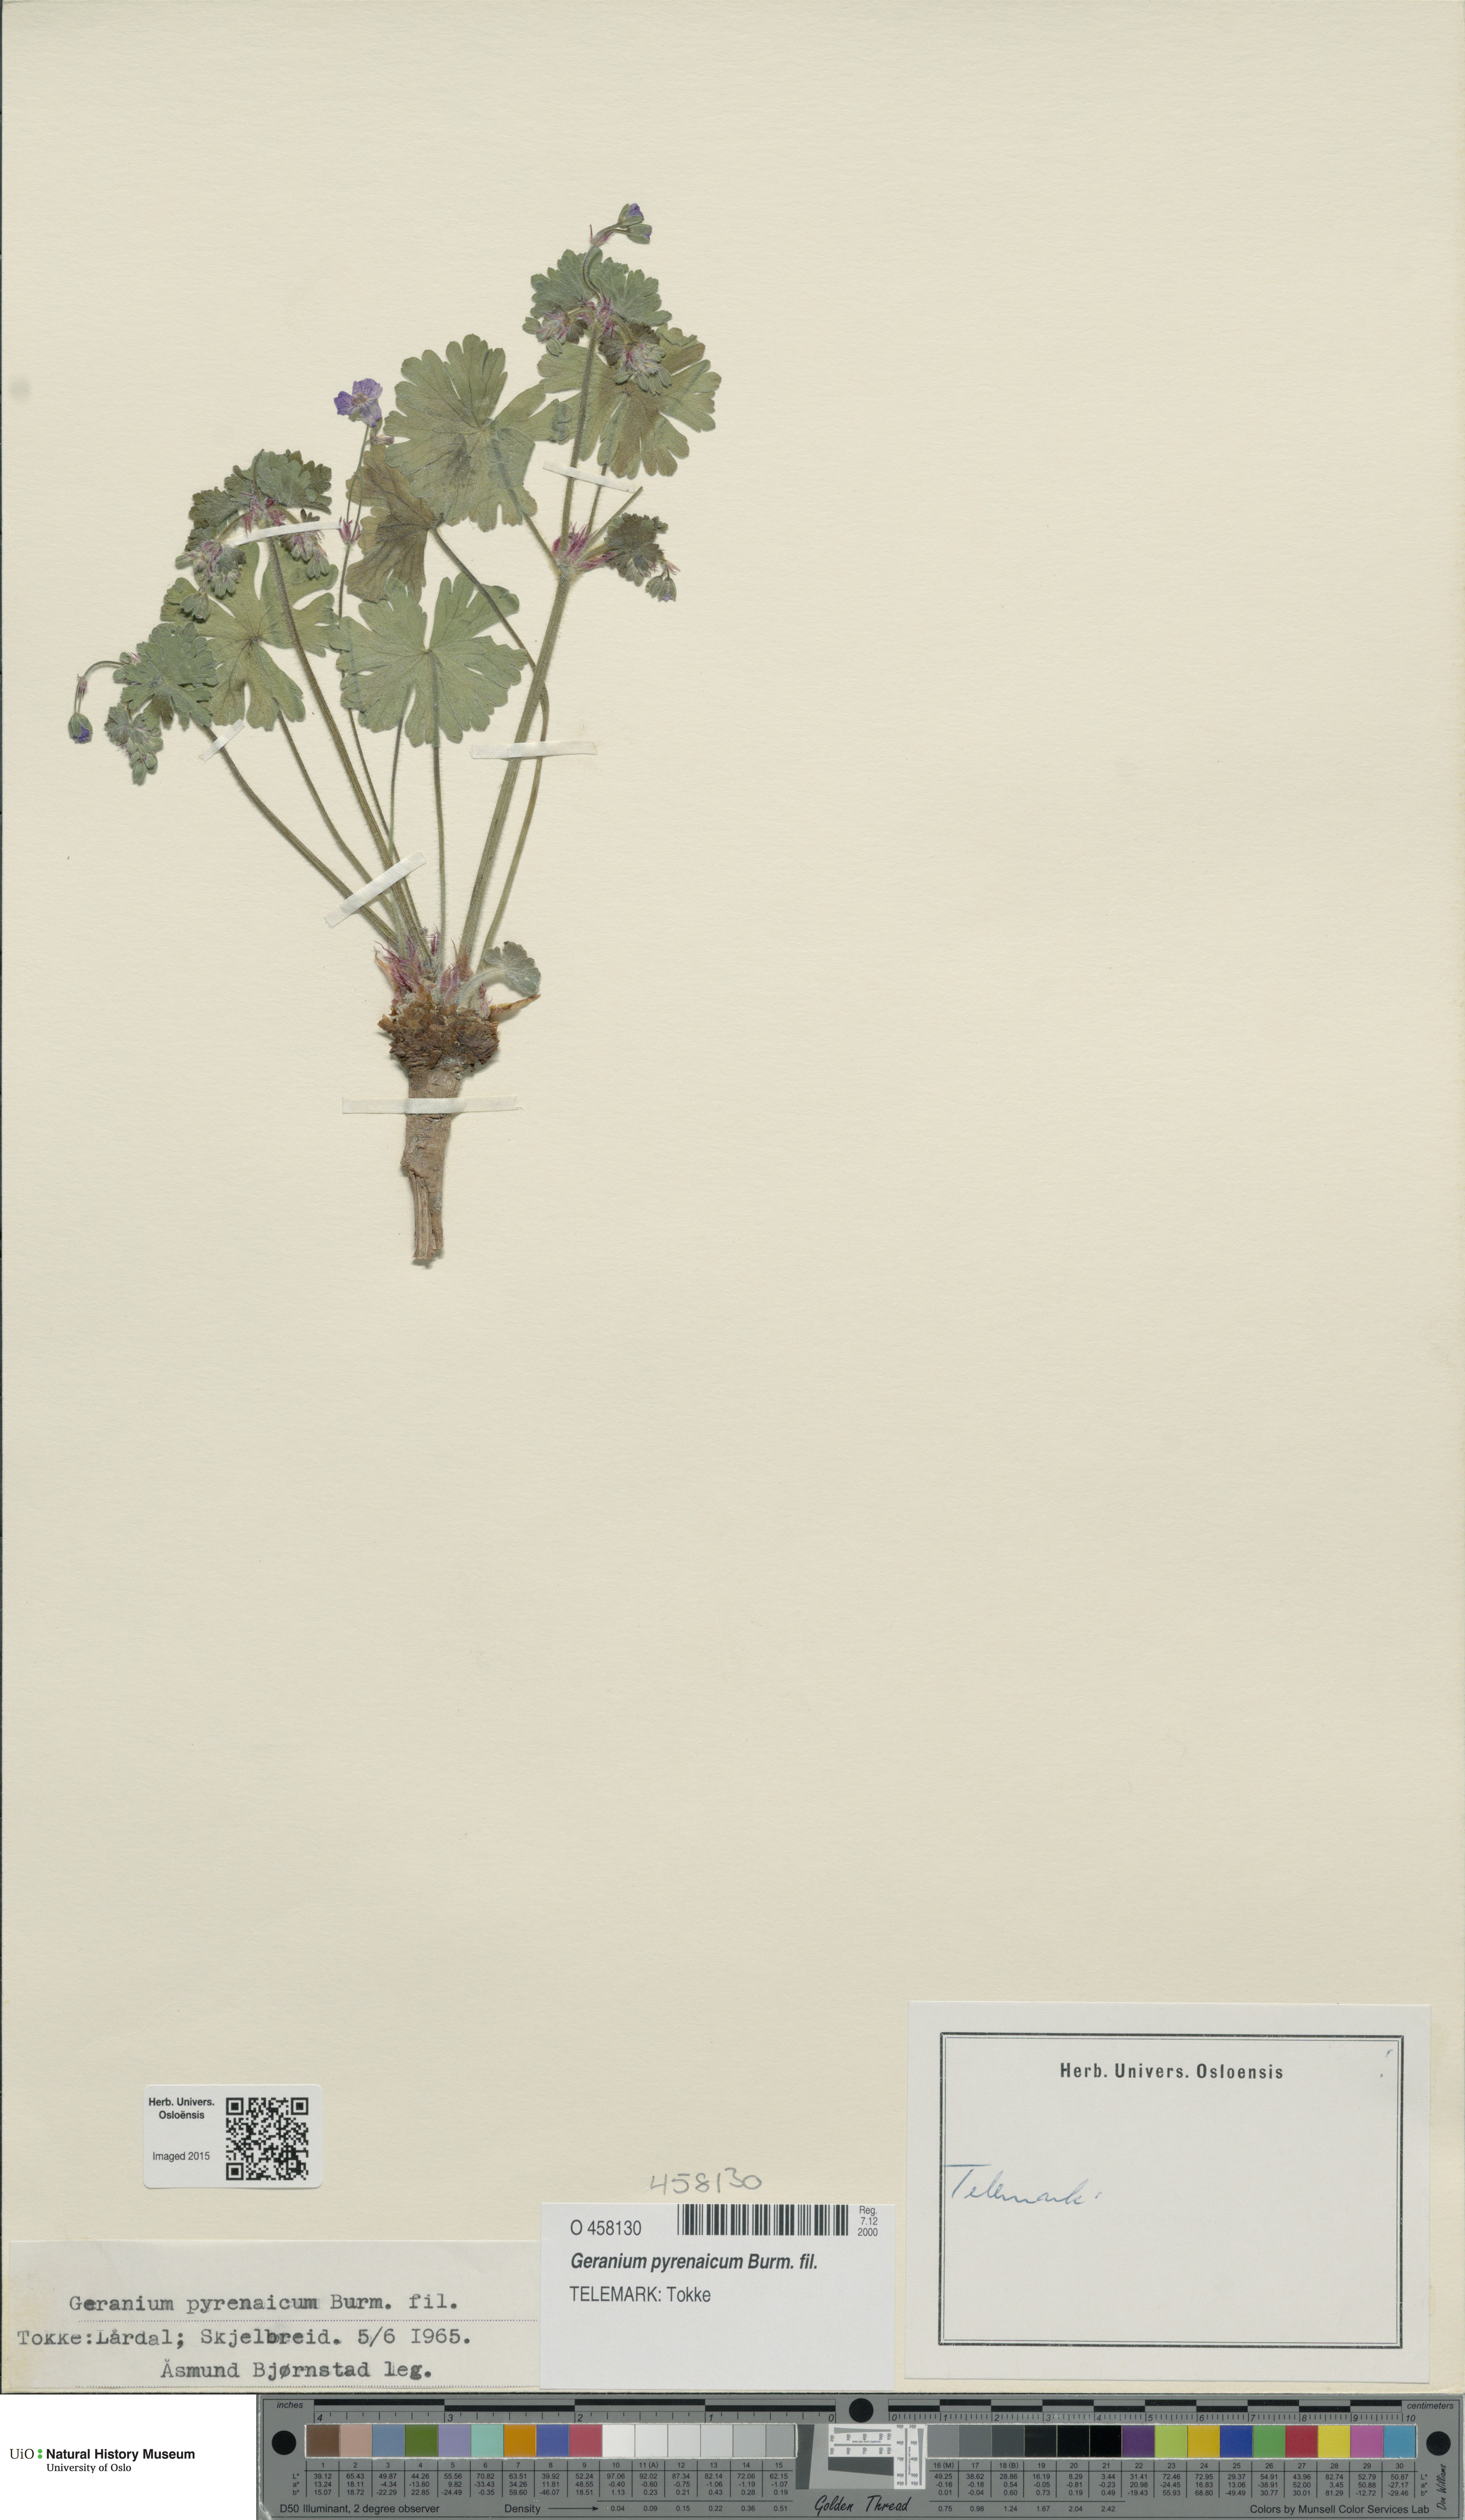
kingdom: Plantae
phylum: Tracheophyta
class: Magnoliopsida
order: Geraniales
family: Geraniaceae
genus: Geranium
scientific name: Geranium pyrenaicum
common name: Hedgerow crane's-bill
